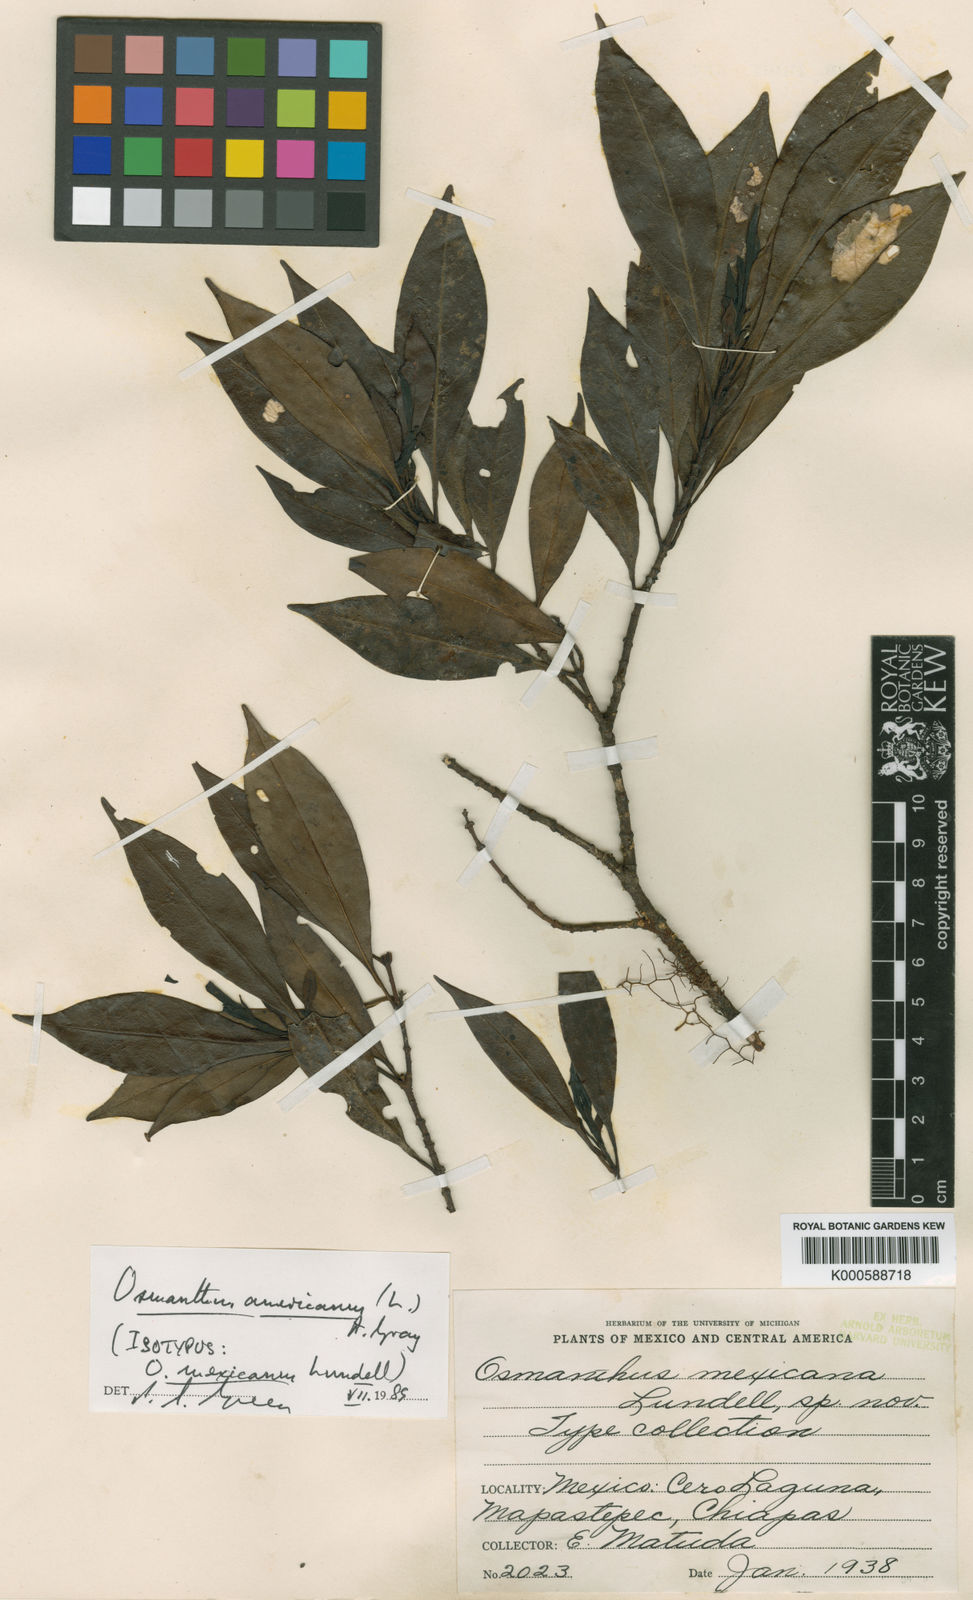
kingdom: Plantae
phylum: Tracheophyta
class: Magnoliopsida
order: Lamiales
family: Oleaceae
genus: Osmanthus
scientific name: Osmanthus
